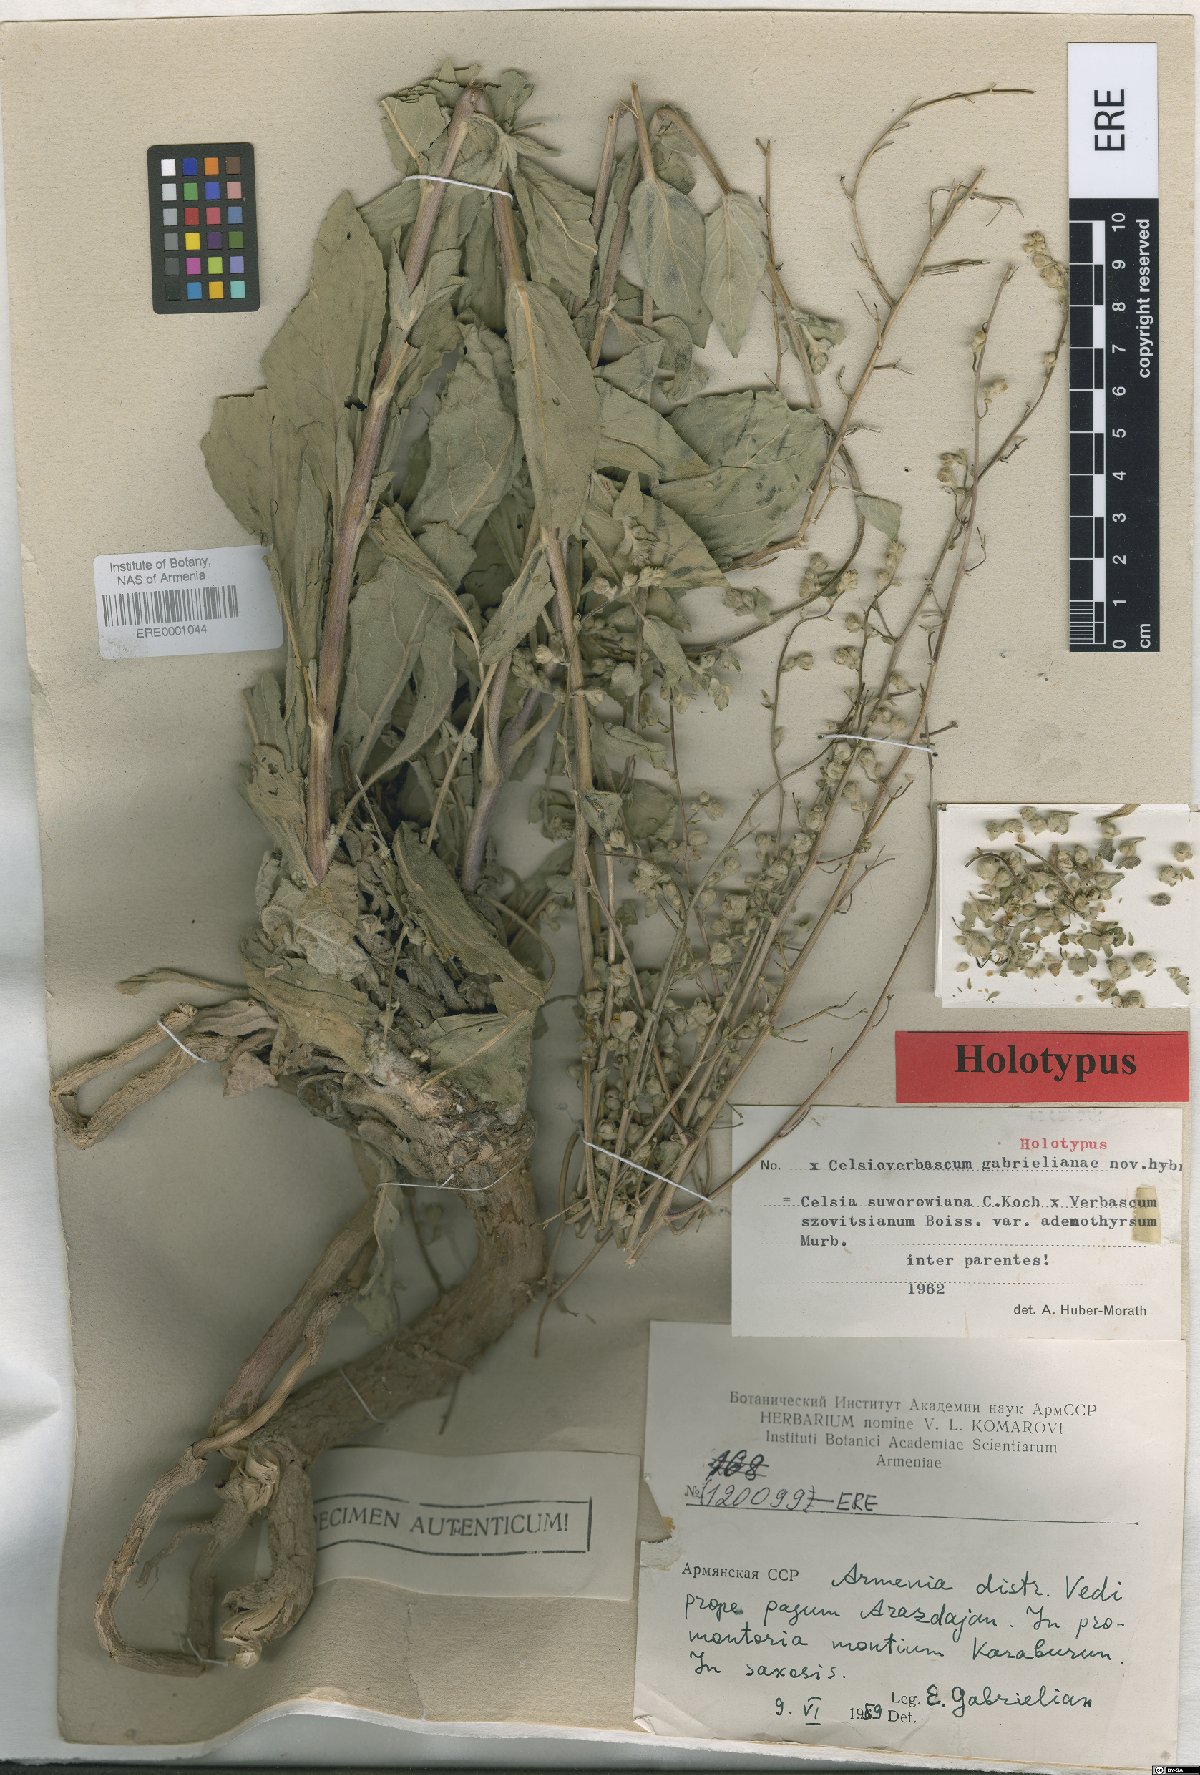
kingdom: Plantae
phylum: Tracheophyta
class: Magnoliopsida
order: Lamiales
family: Scrophulariaceae
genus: Verbascum
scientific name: Verbascum gabrielianae
